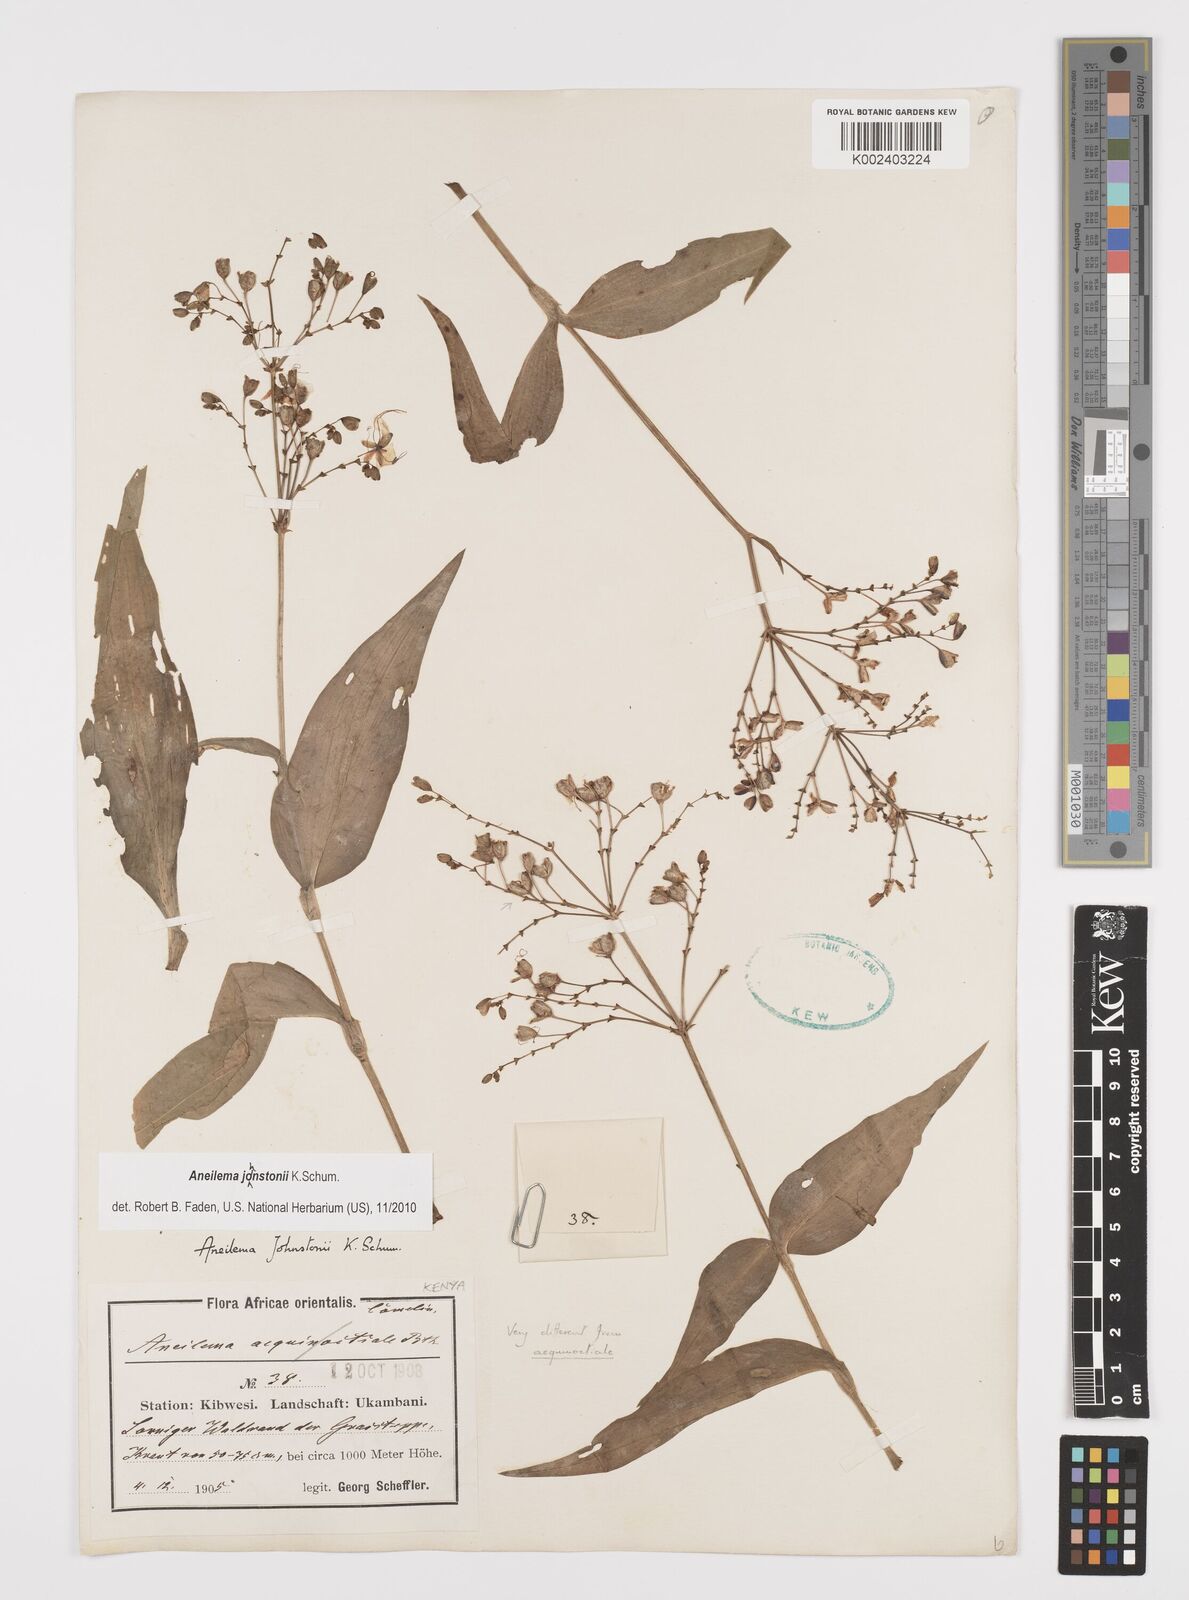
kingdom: Plantae
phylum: Tracheophyta
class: Liliopsida
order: Commelinales
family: Commelinaceae
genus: Aneilema
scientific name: Aneilema johnstonii
